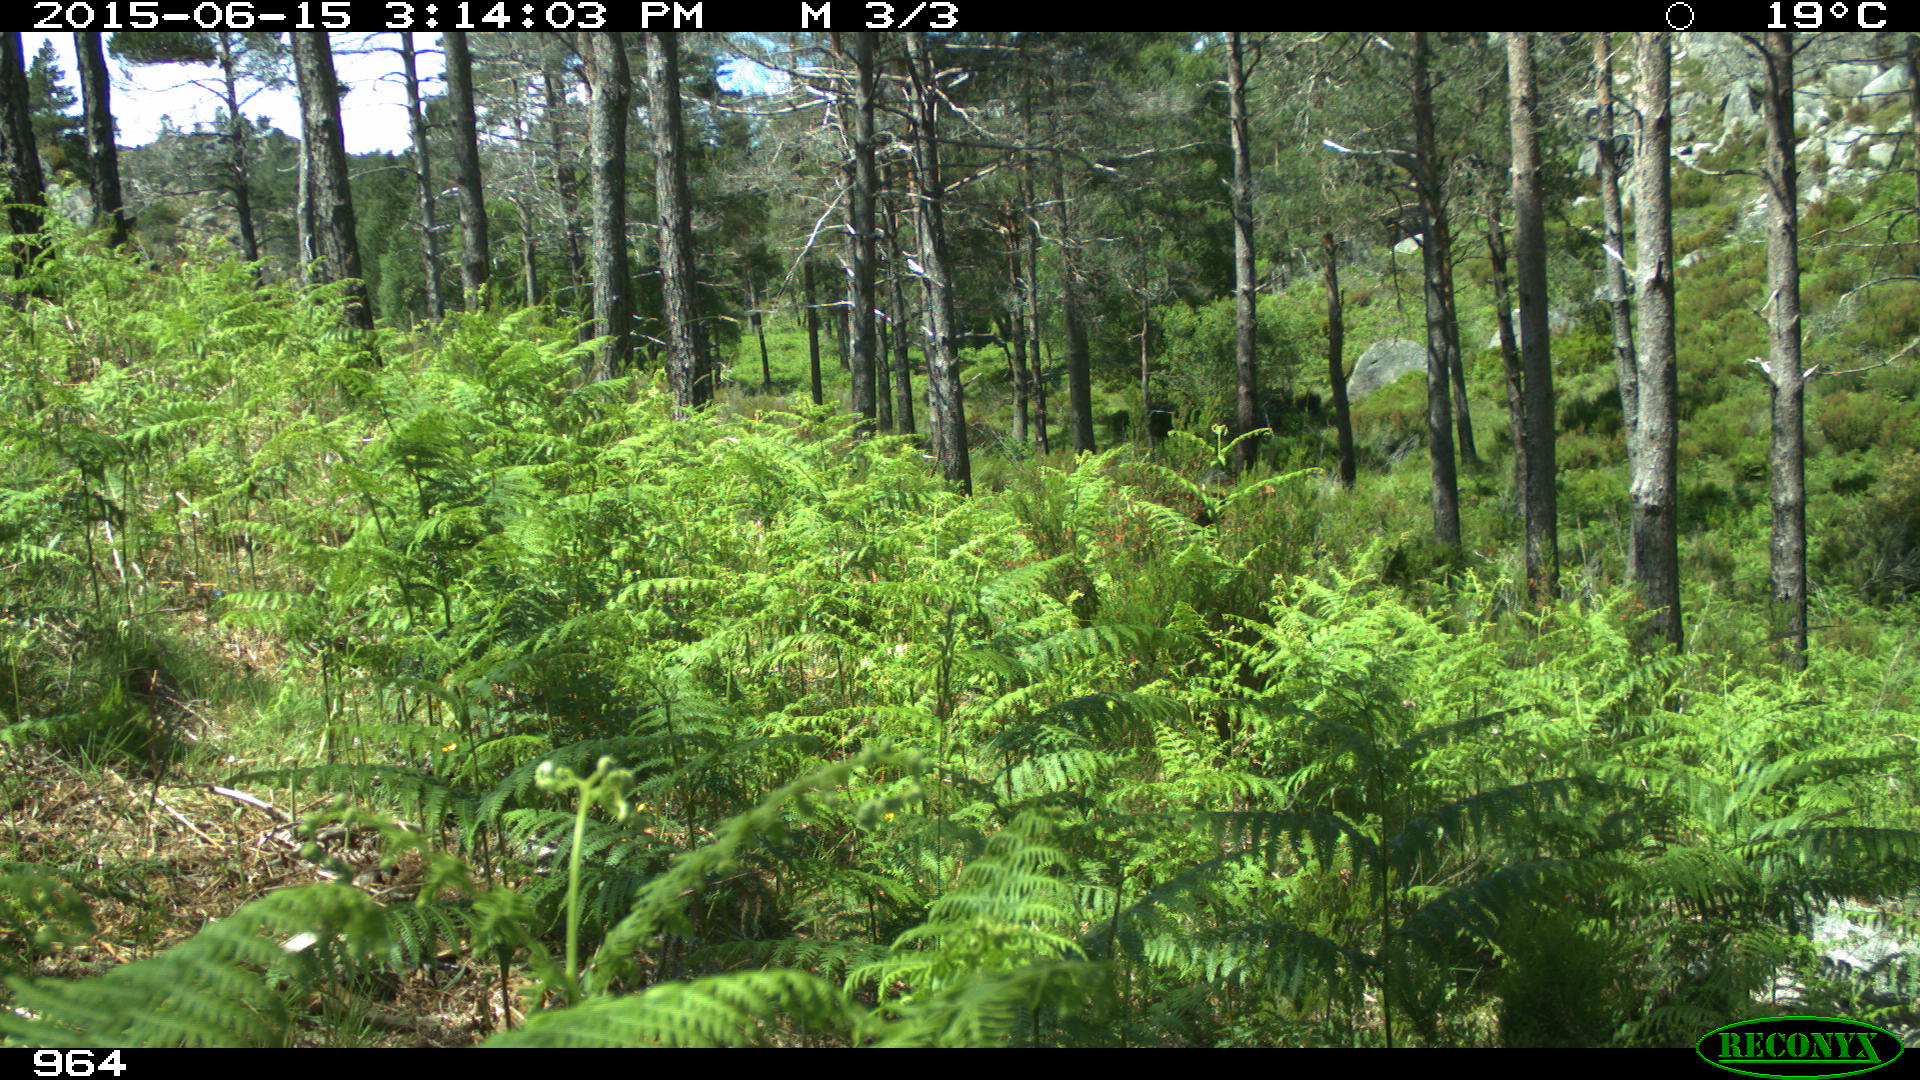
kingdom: Animalia
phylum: Chordata
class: Mammalia
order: Artiodactyla
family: Bovidae
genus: Bos
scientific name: Bos taurus
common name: Domesticated cattle
